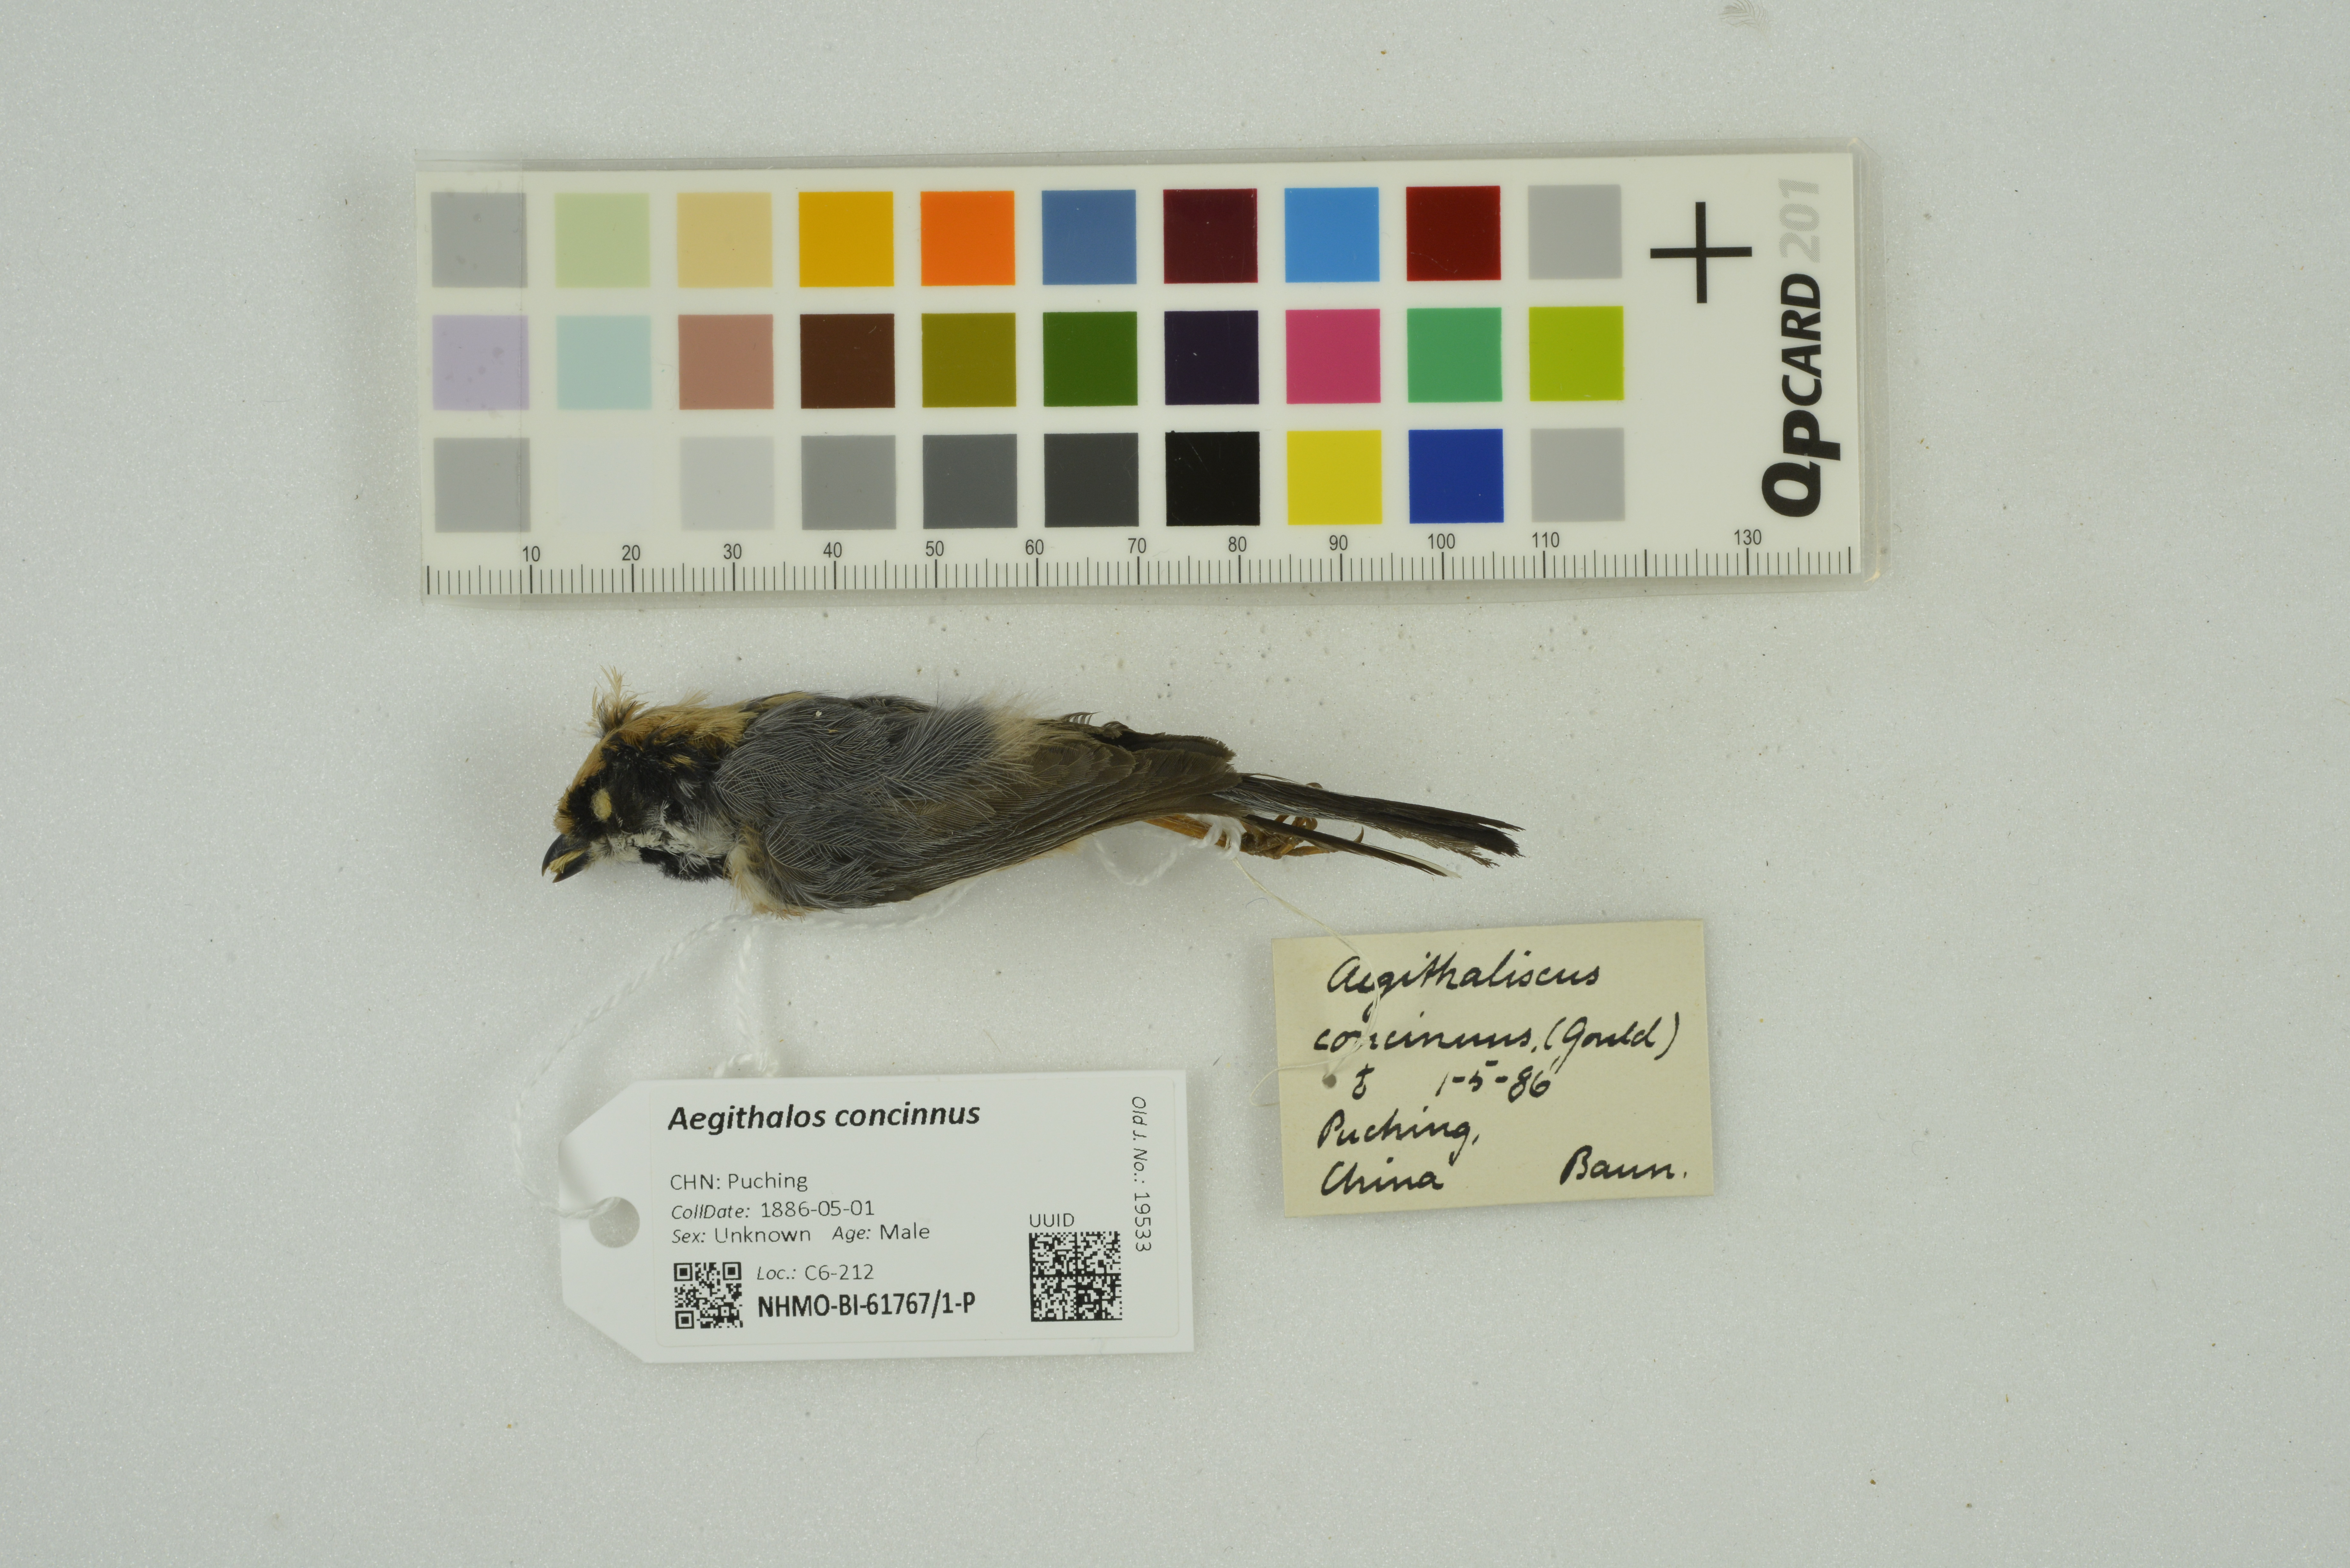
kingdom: Animalia
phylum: Chordata
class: Aves
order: Passeriformes
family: Aegithalidae
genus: Aegithalos
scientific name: Aegithalos concinnus
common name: Black-throated bushtit
